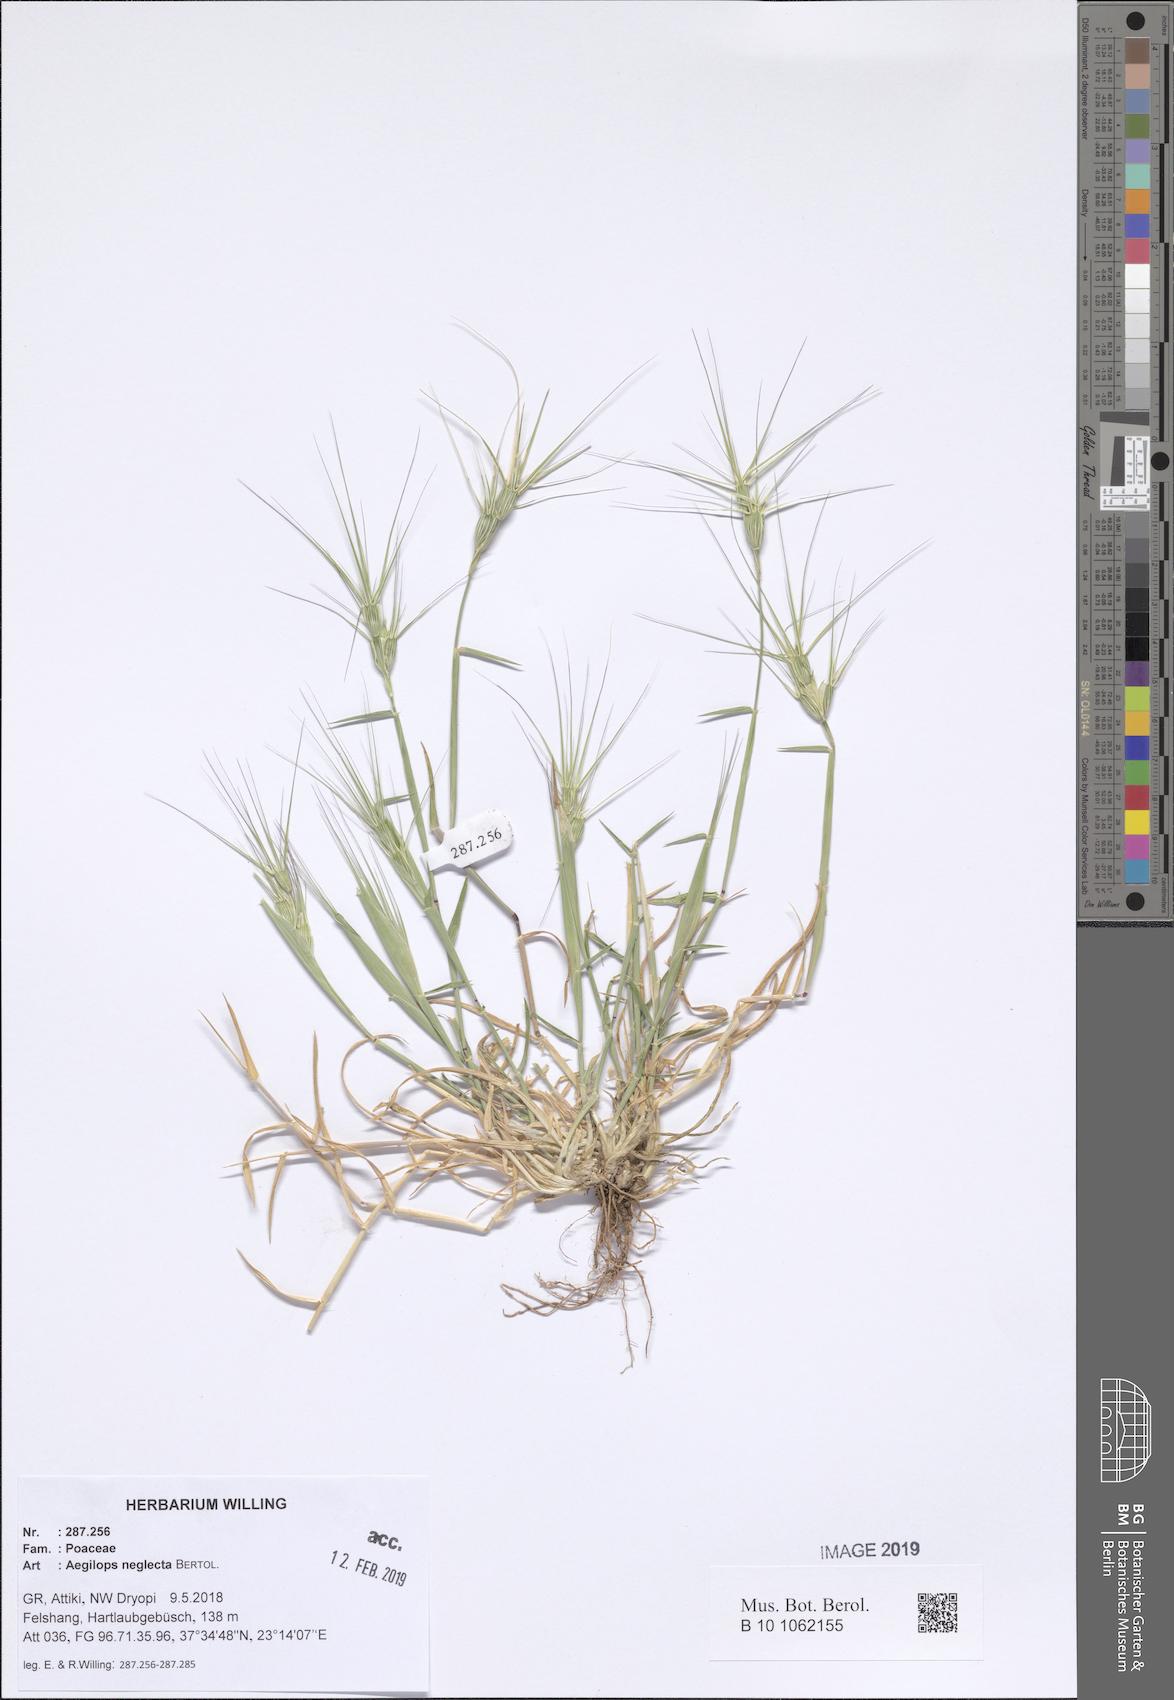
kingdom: Plantae
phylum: Tracheophyta
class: Liliopsida
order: Poales
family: Poaceae
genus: Aegilops
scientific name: Aegilops neglecta
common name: Three-awn goat grass
